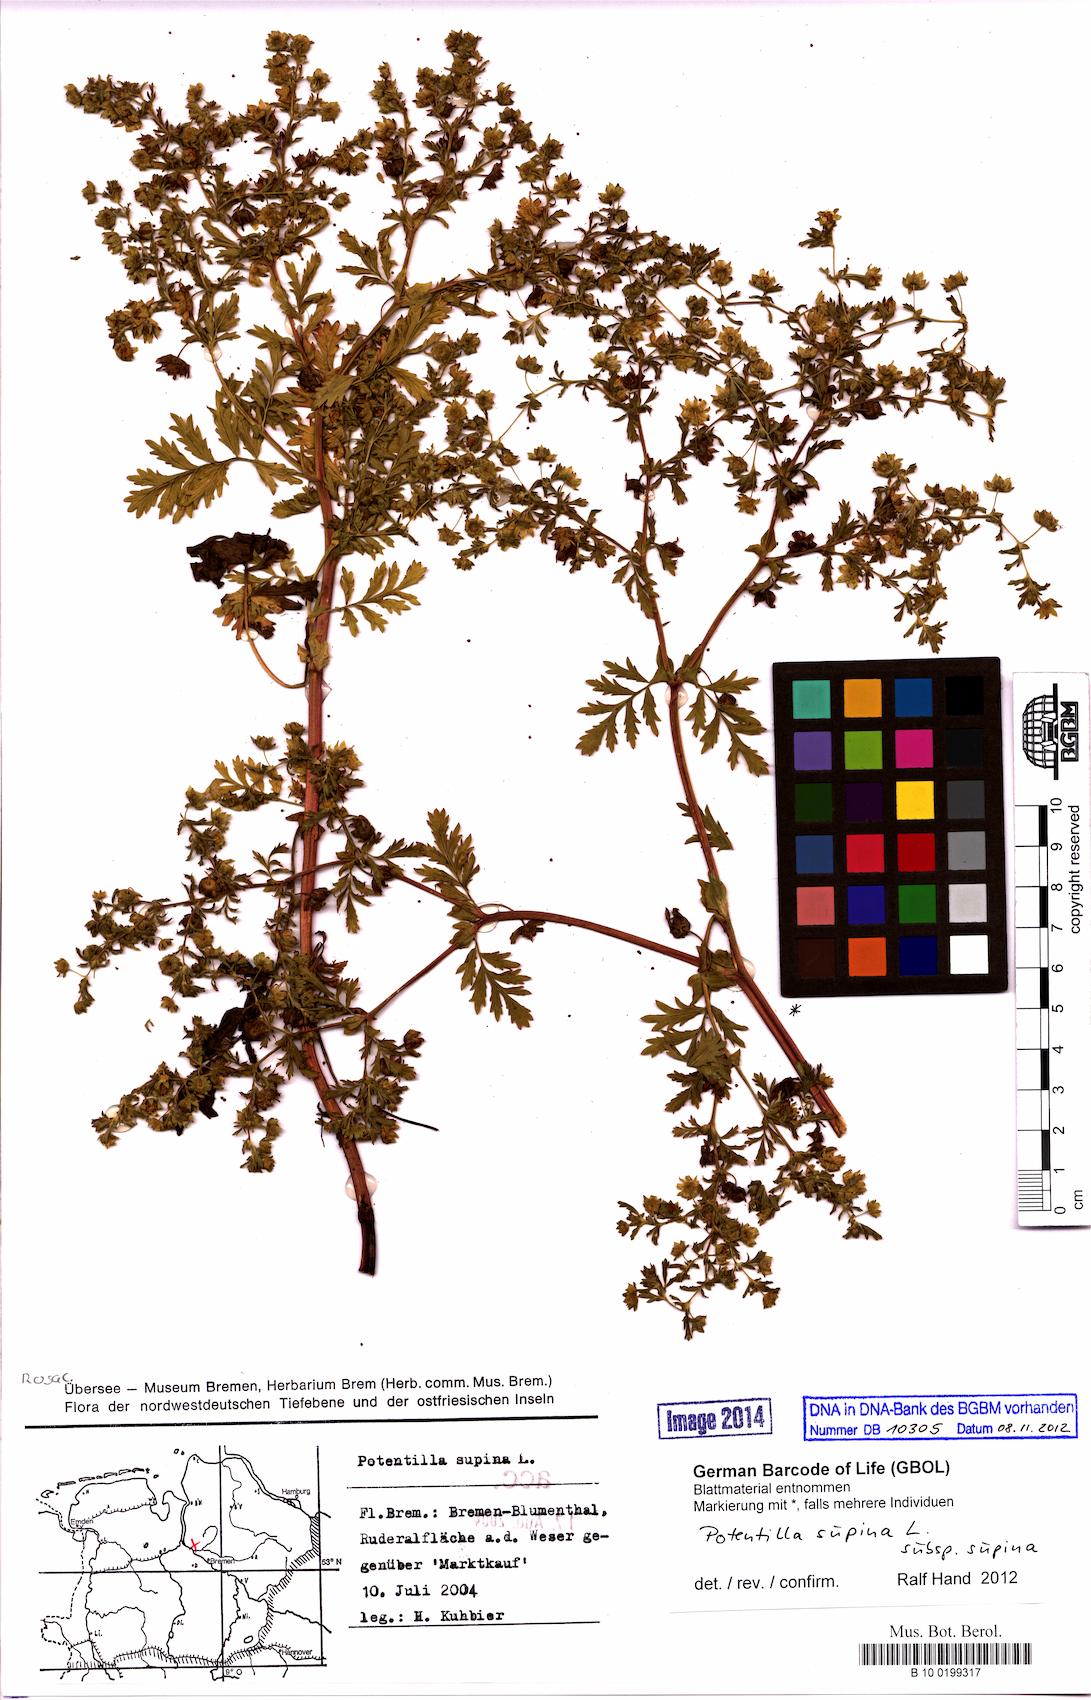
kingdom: Plantae
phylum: Tracheophyta
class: Magnoliopsida
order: Rosales
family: Rosaceae
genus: Potentilla
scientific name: Potentilla supina
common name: Prostrate cinquefoil
